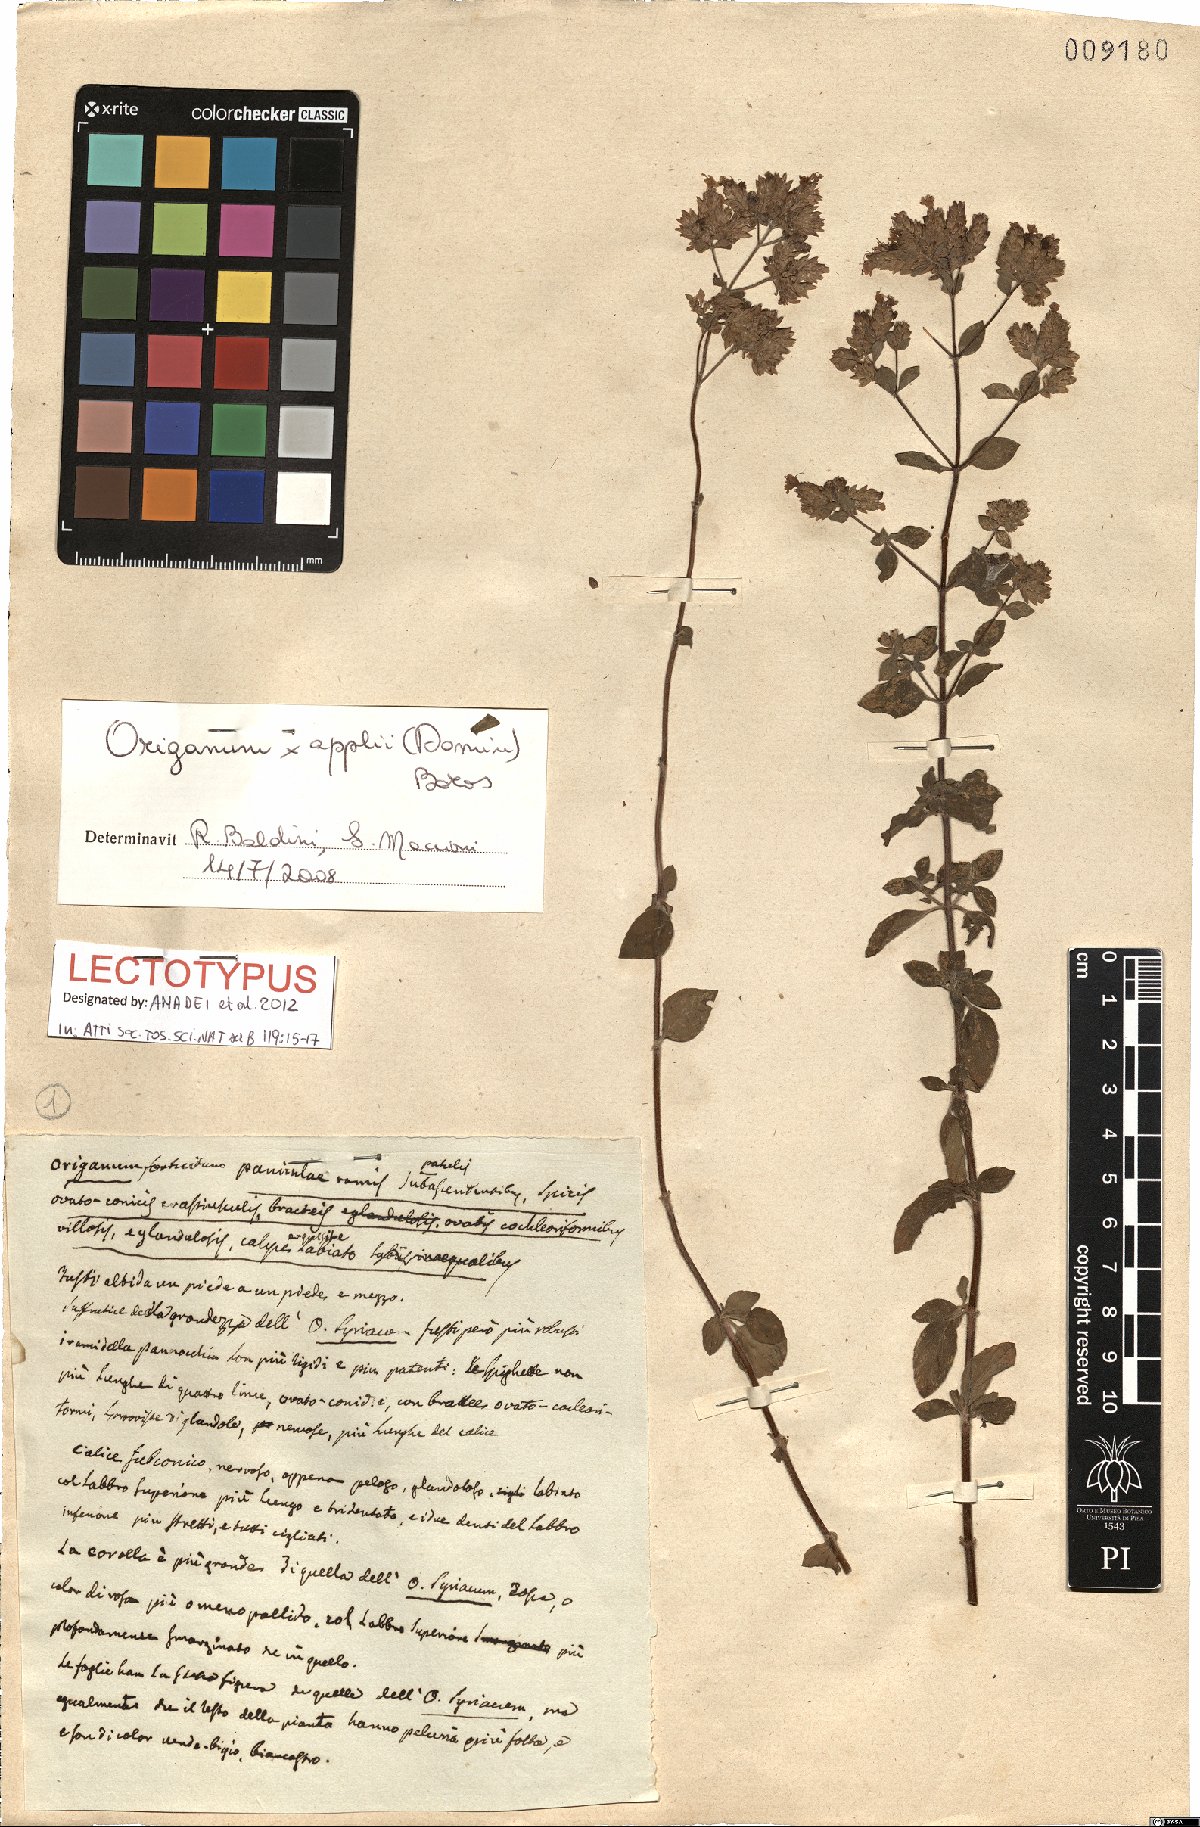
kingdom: Plantae
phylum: Tracheophyta
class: Magnoliopsida
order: Lamiales
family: Lamiaceae
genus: Origanum
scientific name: Origanum paniculatum
